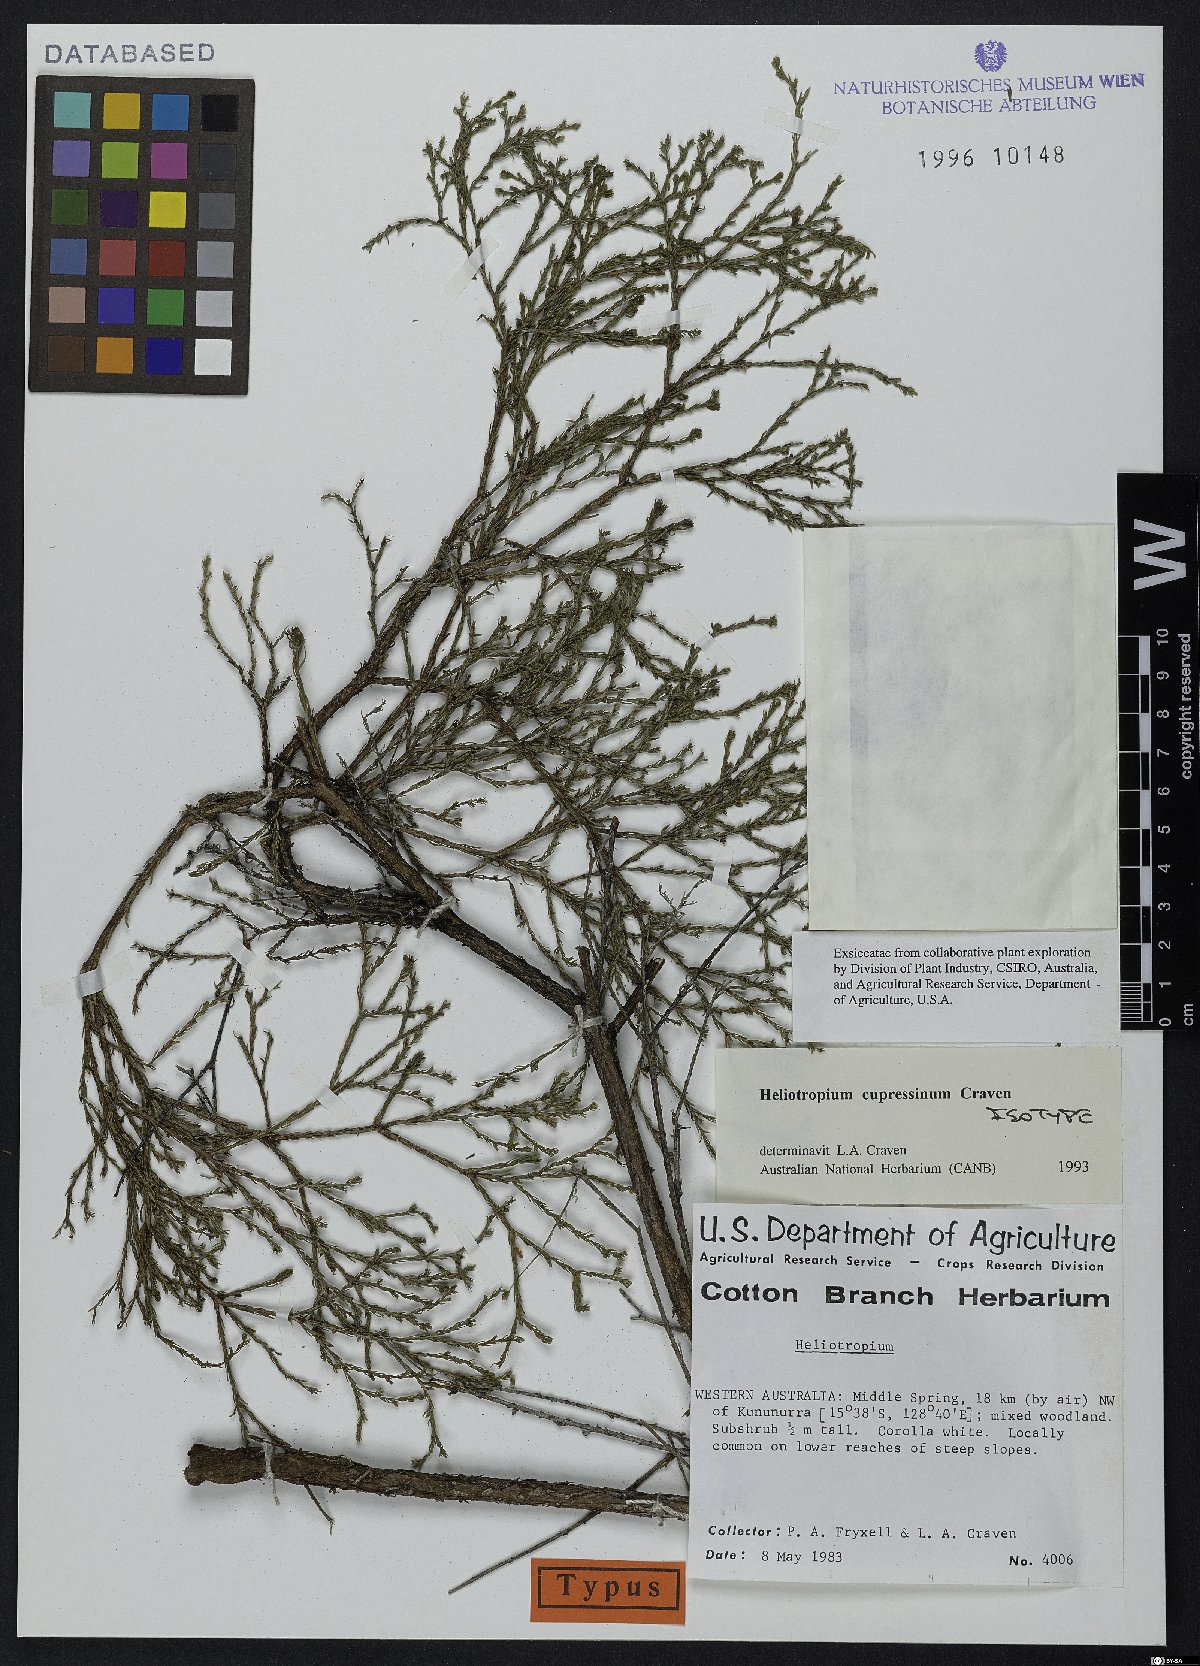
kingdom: Plantae
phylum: Tracheophyta
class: Magnoliopsida
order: Boraginales
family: Heliotropiaceae
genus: Euploca
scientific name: Euploca cupressina
